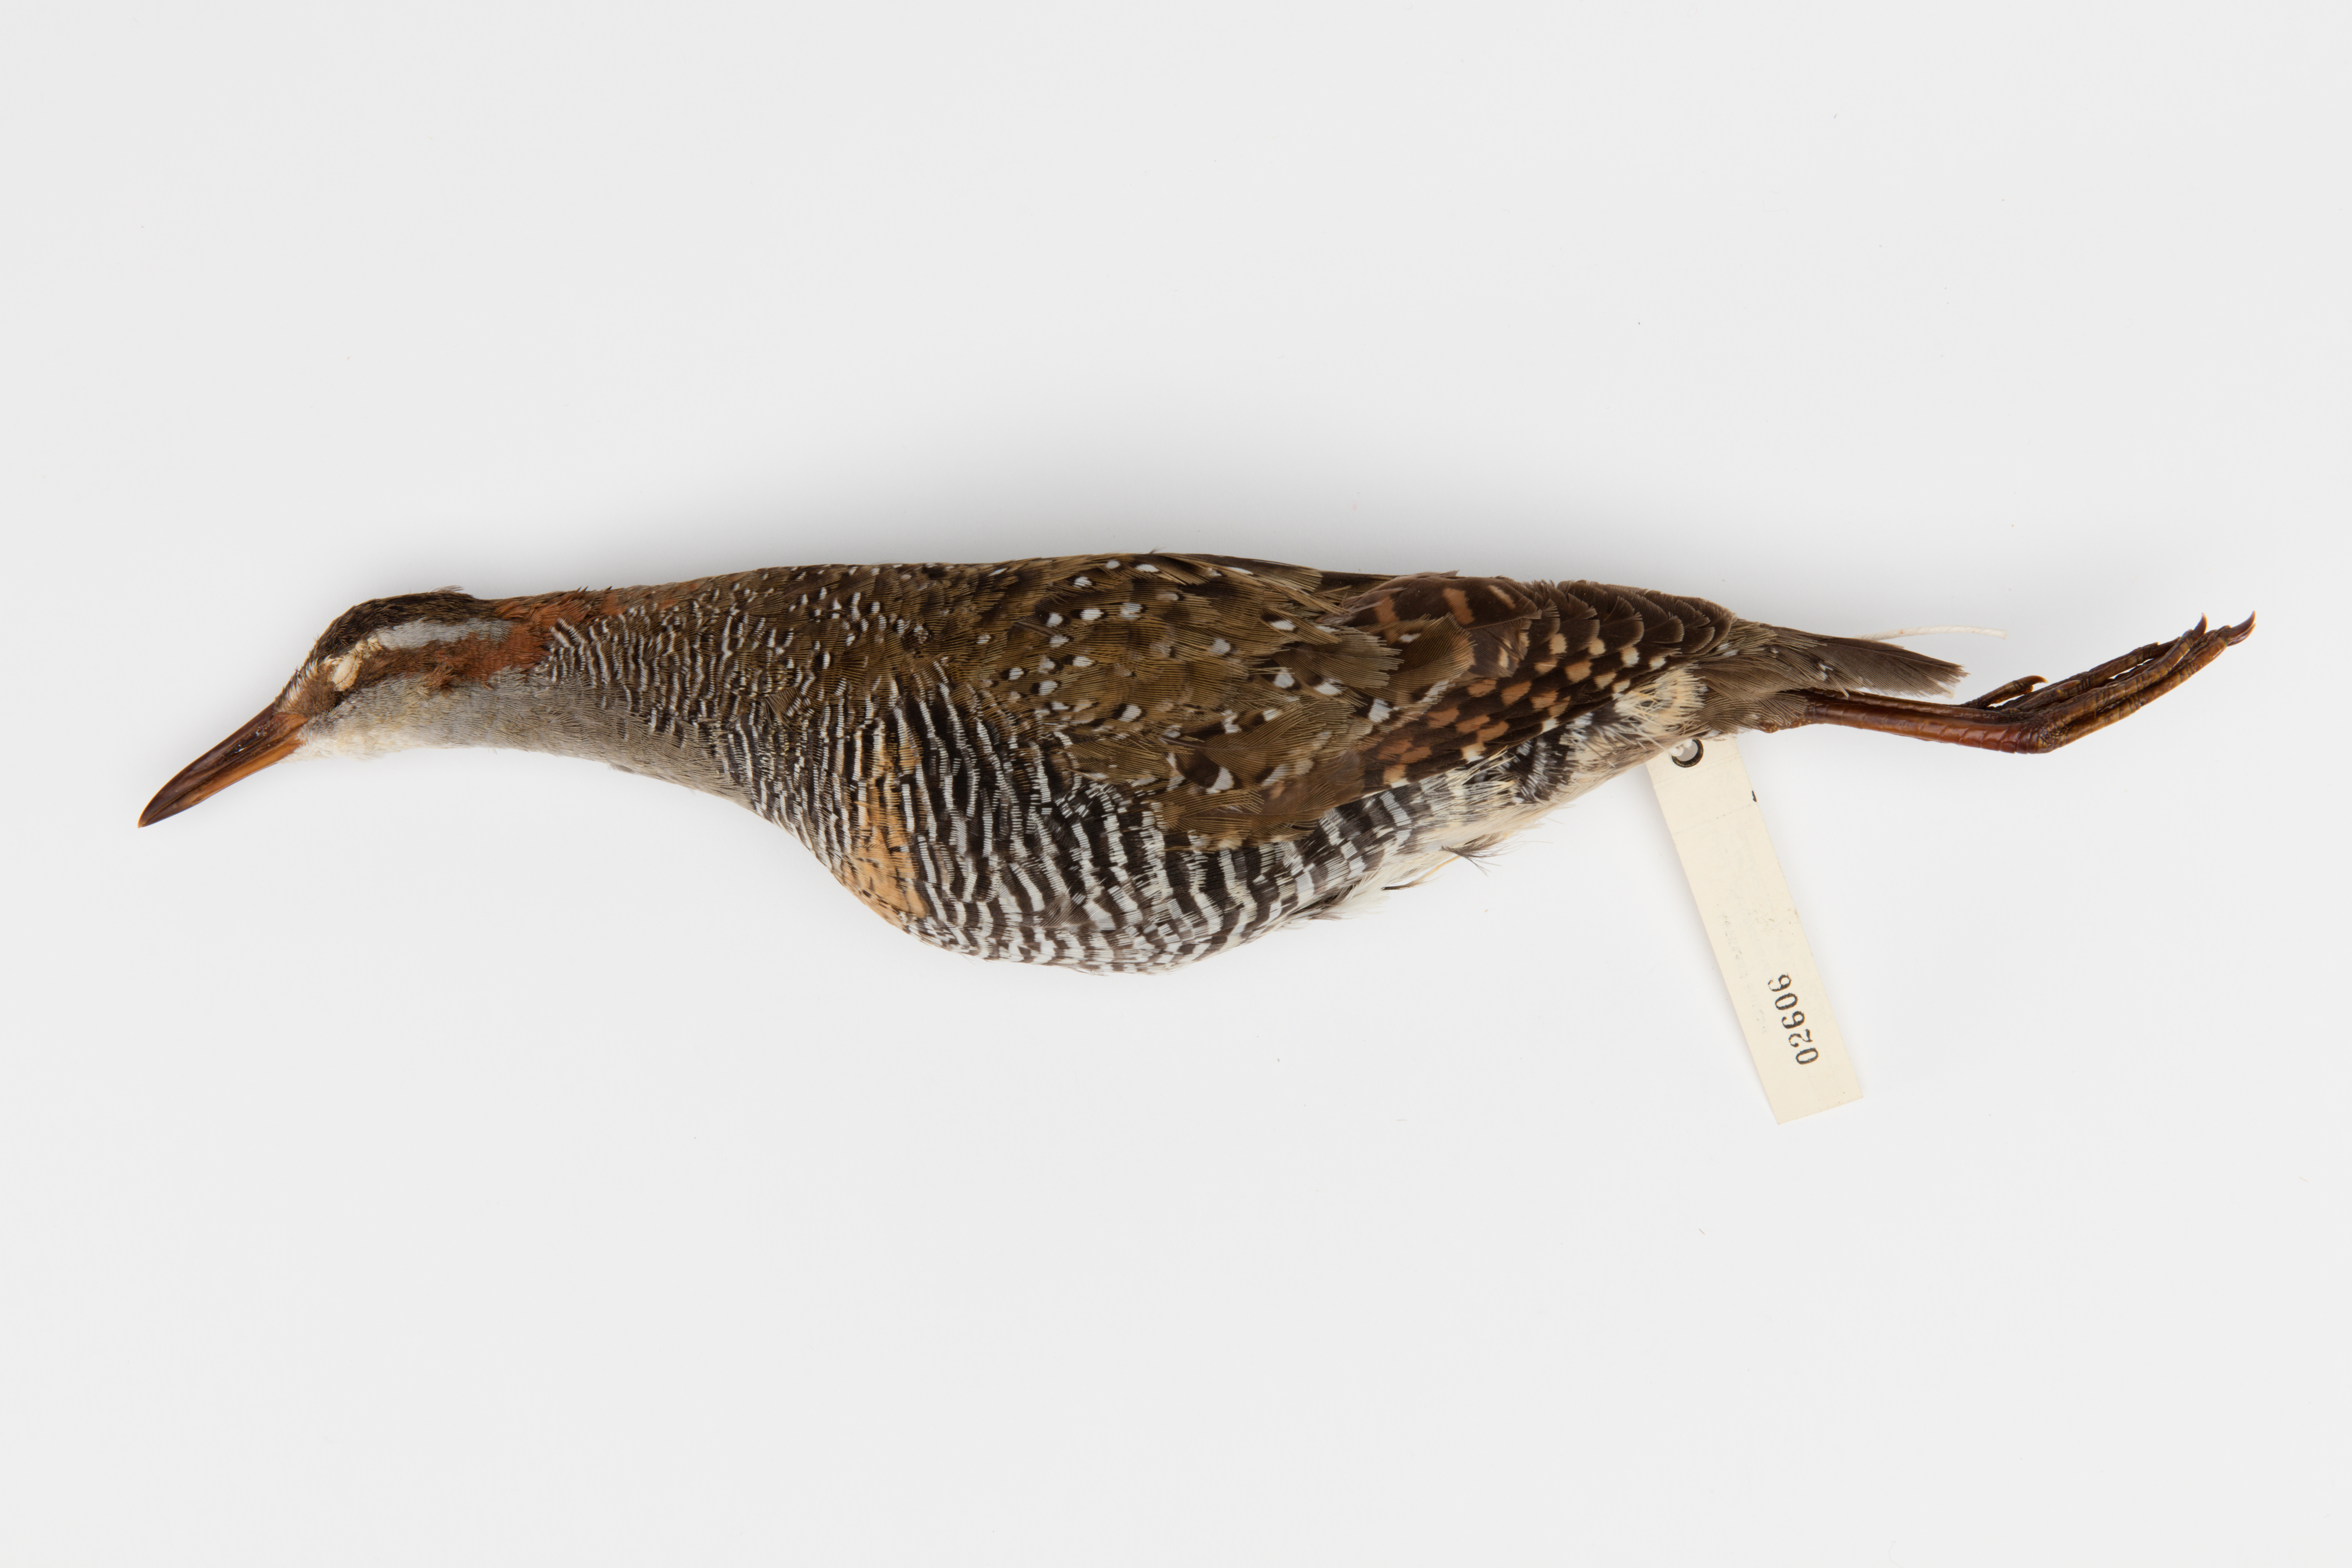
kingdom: Animalia
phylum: Chordata
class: Aves
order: Gruiformes
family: Rallidae
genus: Gallirallus
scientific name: Gallirallus philippensis
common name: Buff-banded rail
